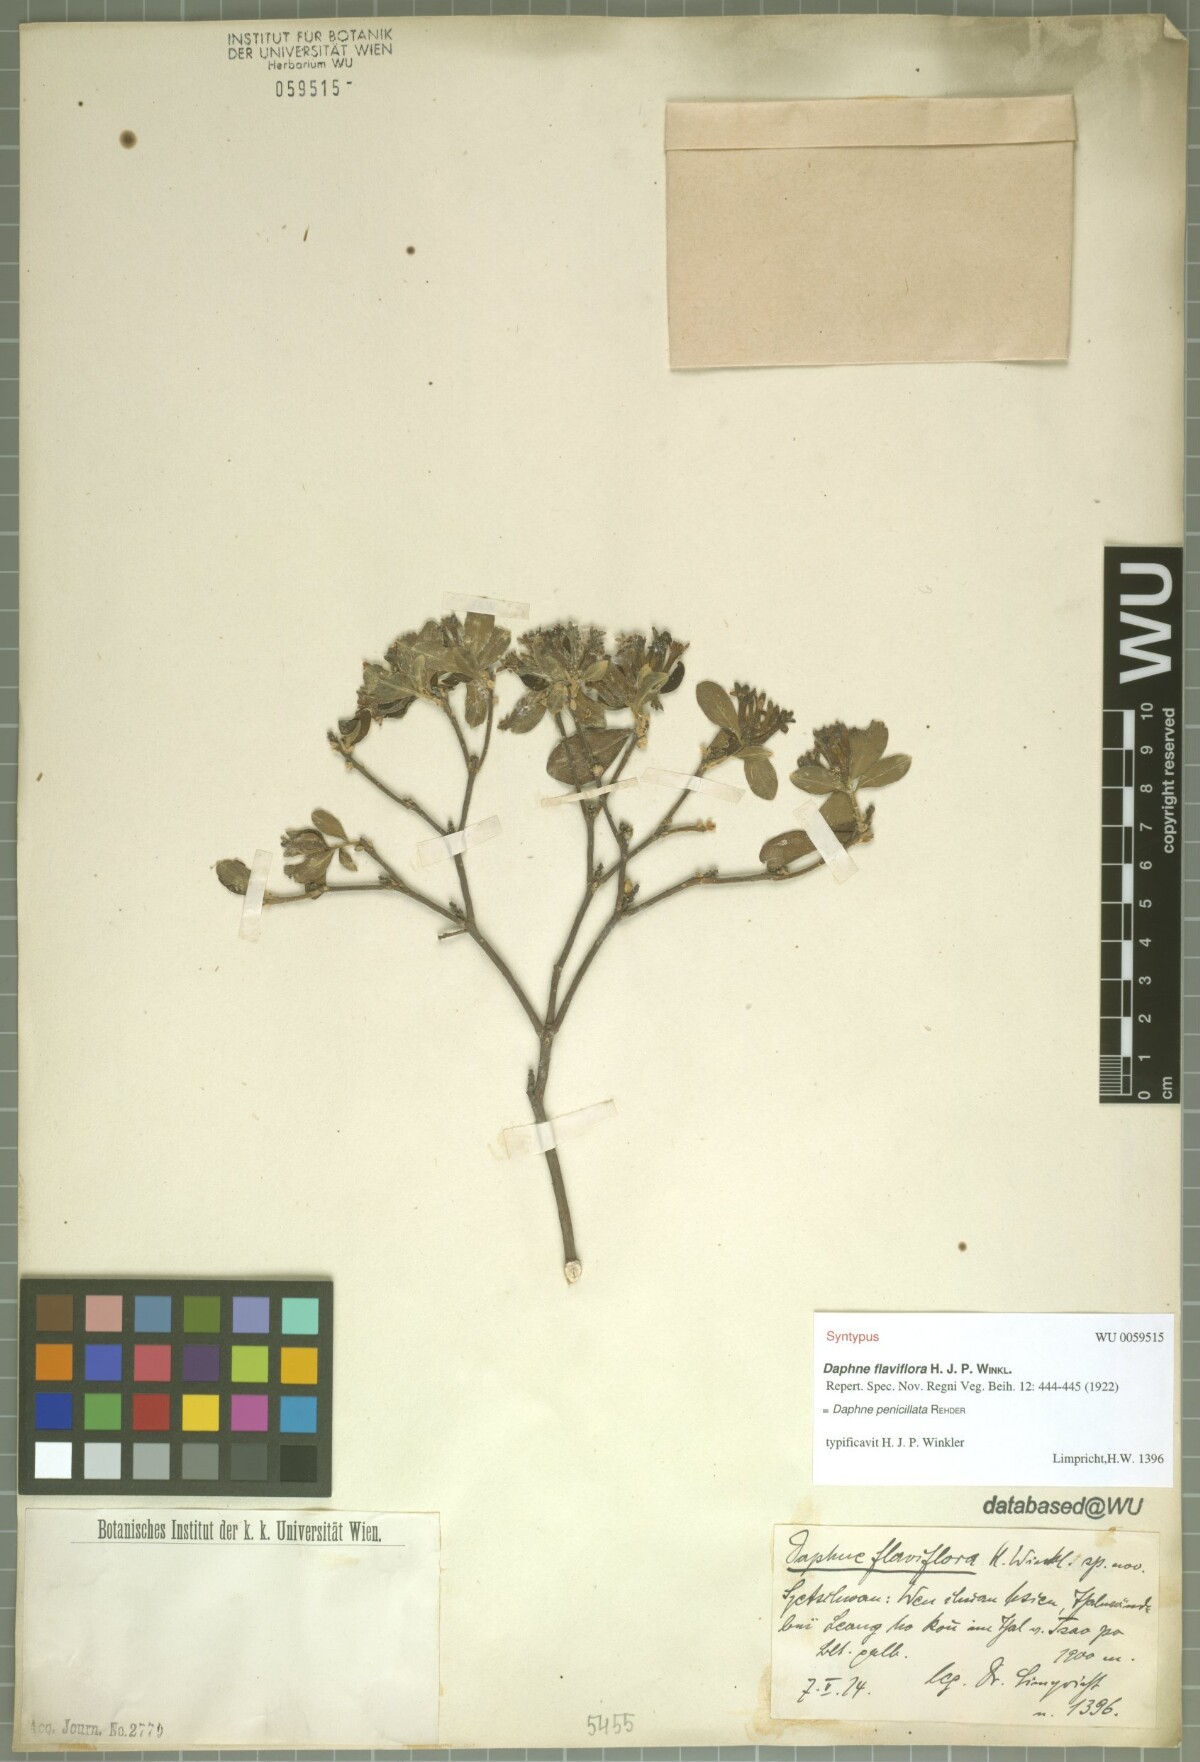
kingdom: Plantae
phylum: Tracheophyta
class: Magnoliopsida
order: Malvales
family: Thymelaeaceae
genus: Wikstroemia
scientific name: Wikstroemia penicillata
